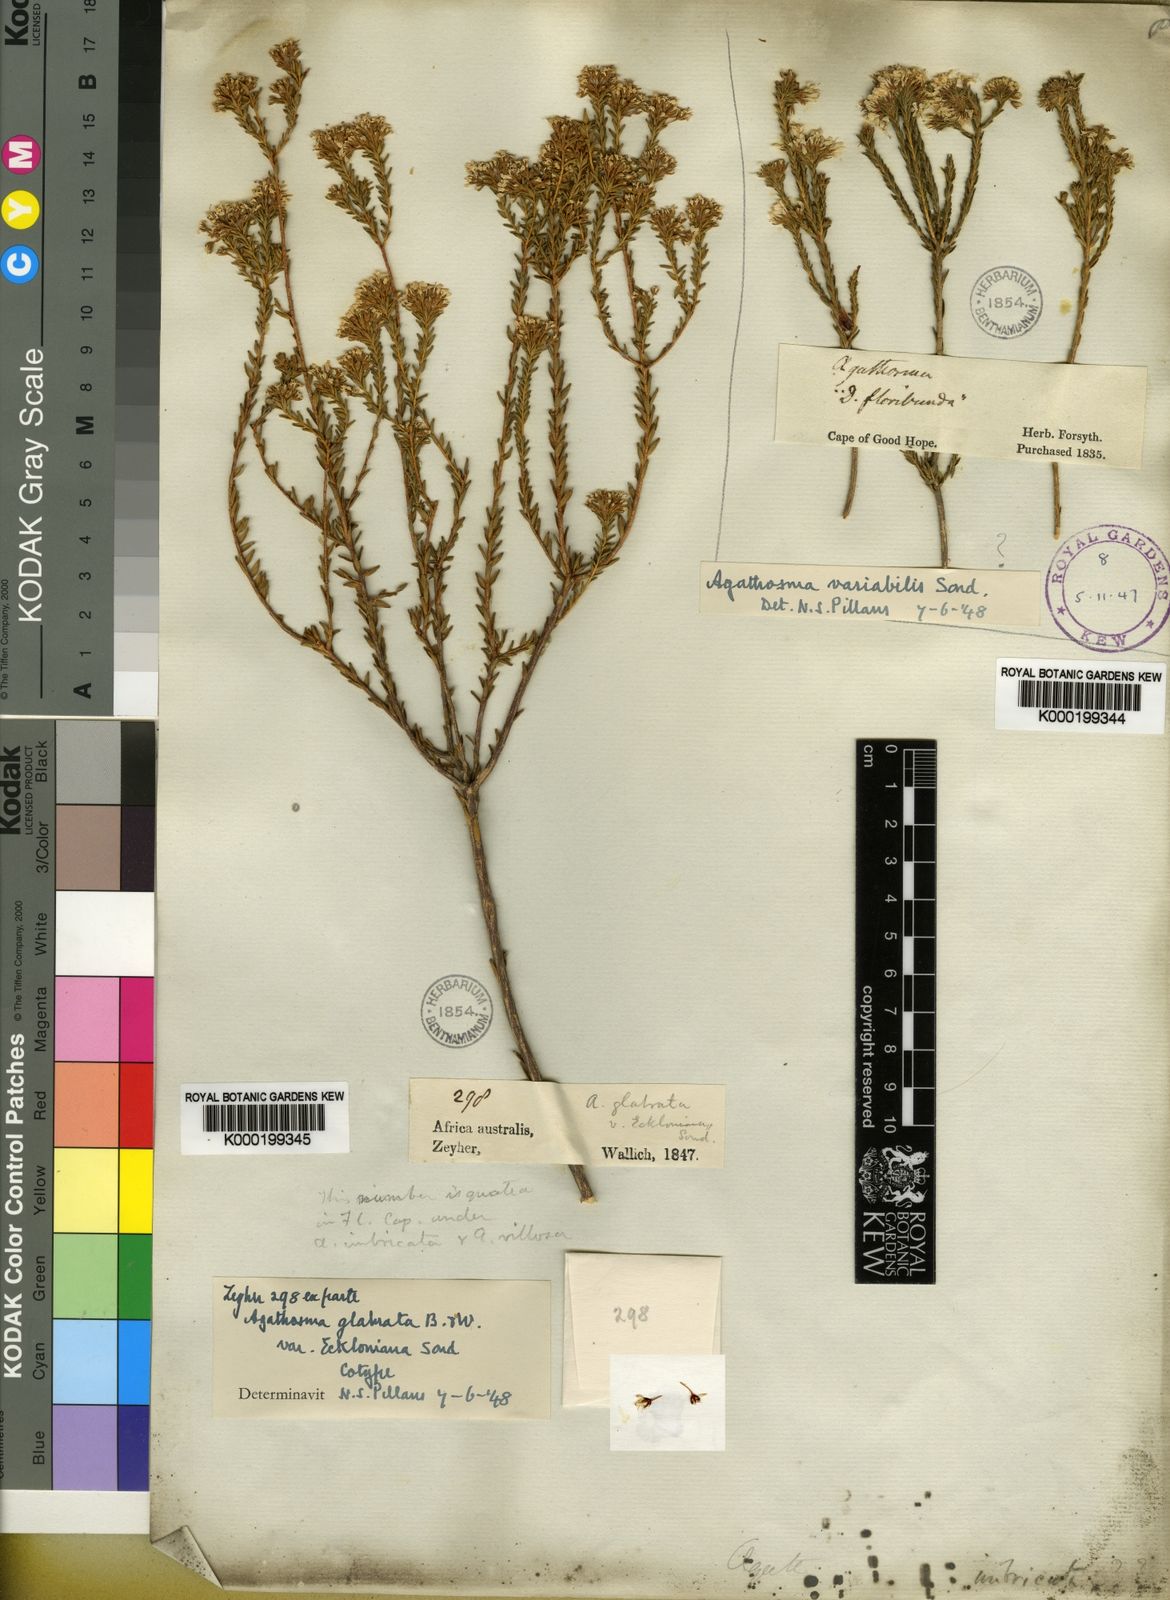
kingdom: Plantae
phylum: Tracheophyta
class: Magnoliopsida
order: Sapindales
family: Rutaceae
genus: Agathosma
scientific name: Agathosma capensis
